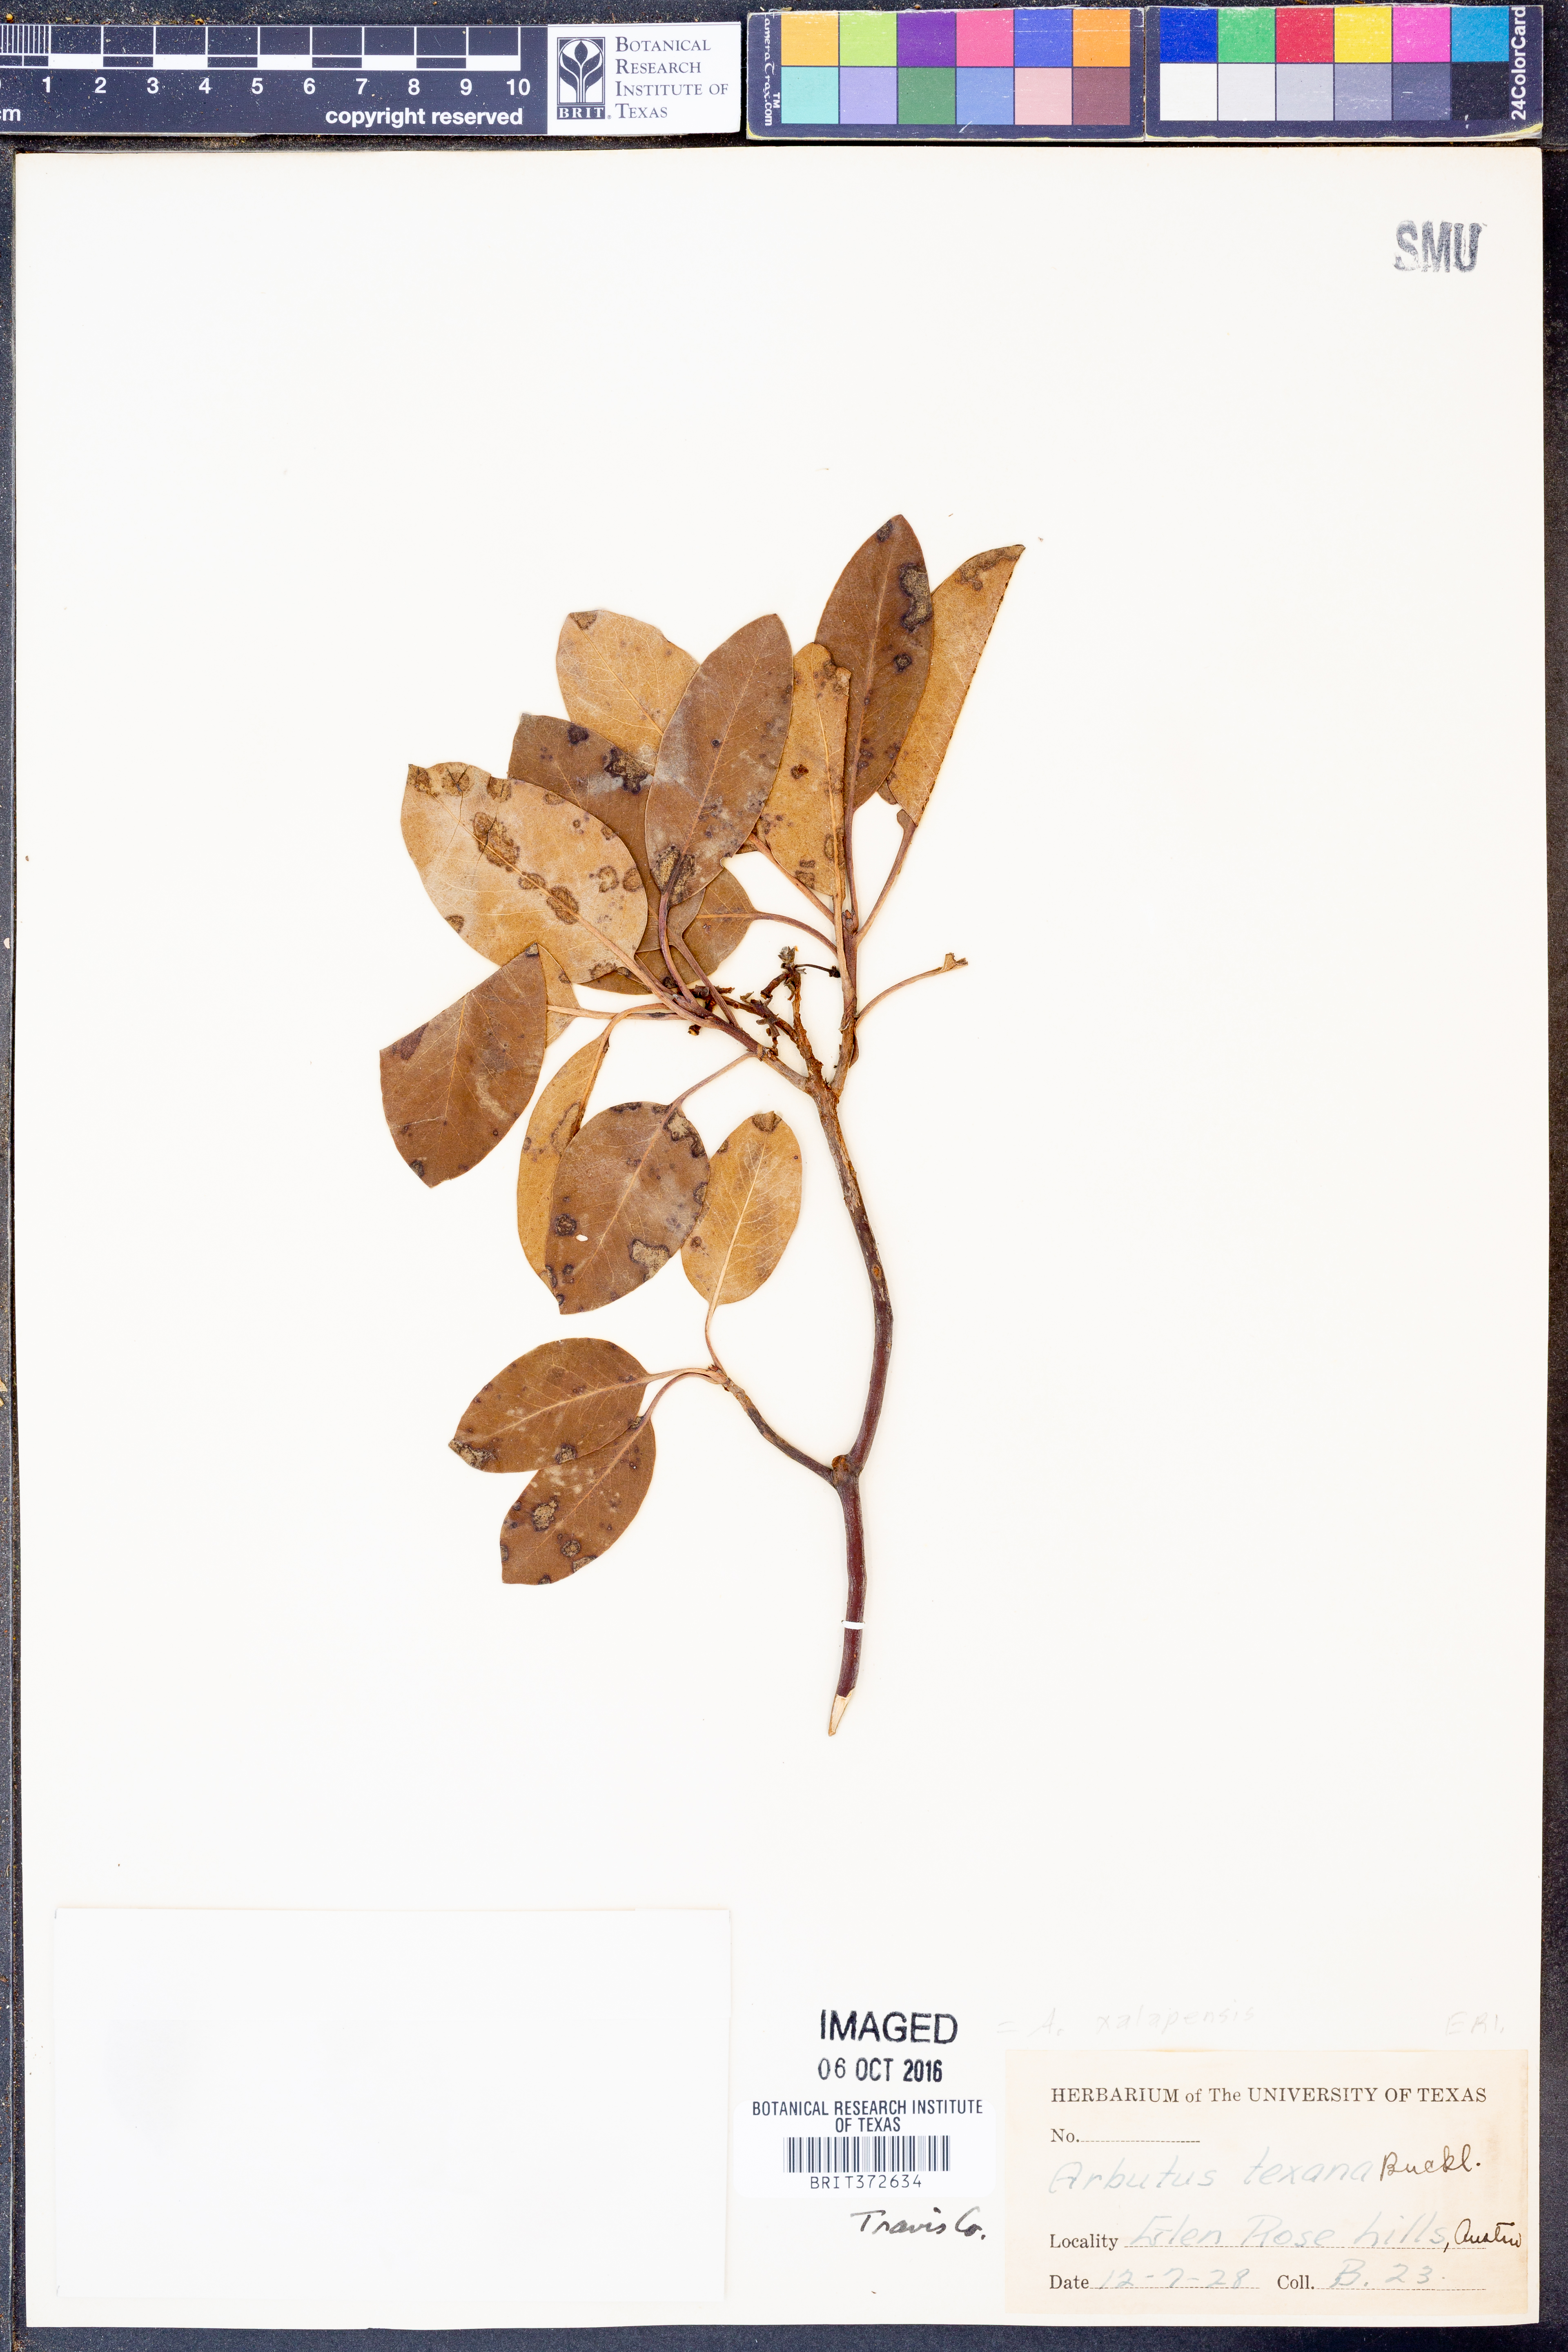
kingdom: Plantae
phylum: Tracheophyta
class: Magnoliopsida
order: Ericales
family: Ericaceae
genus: Arbutus
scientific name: Arbutus xalapensis
